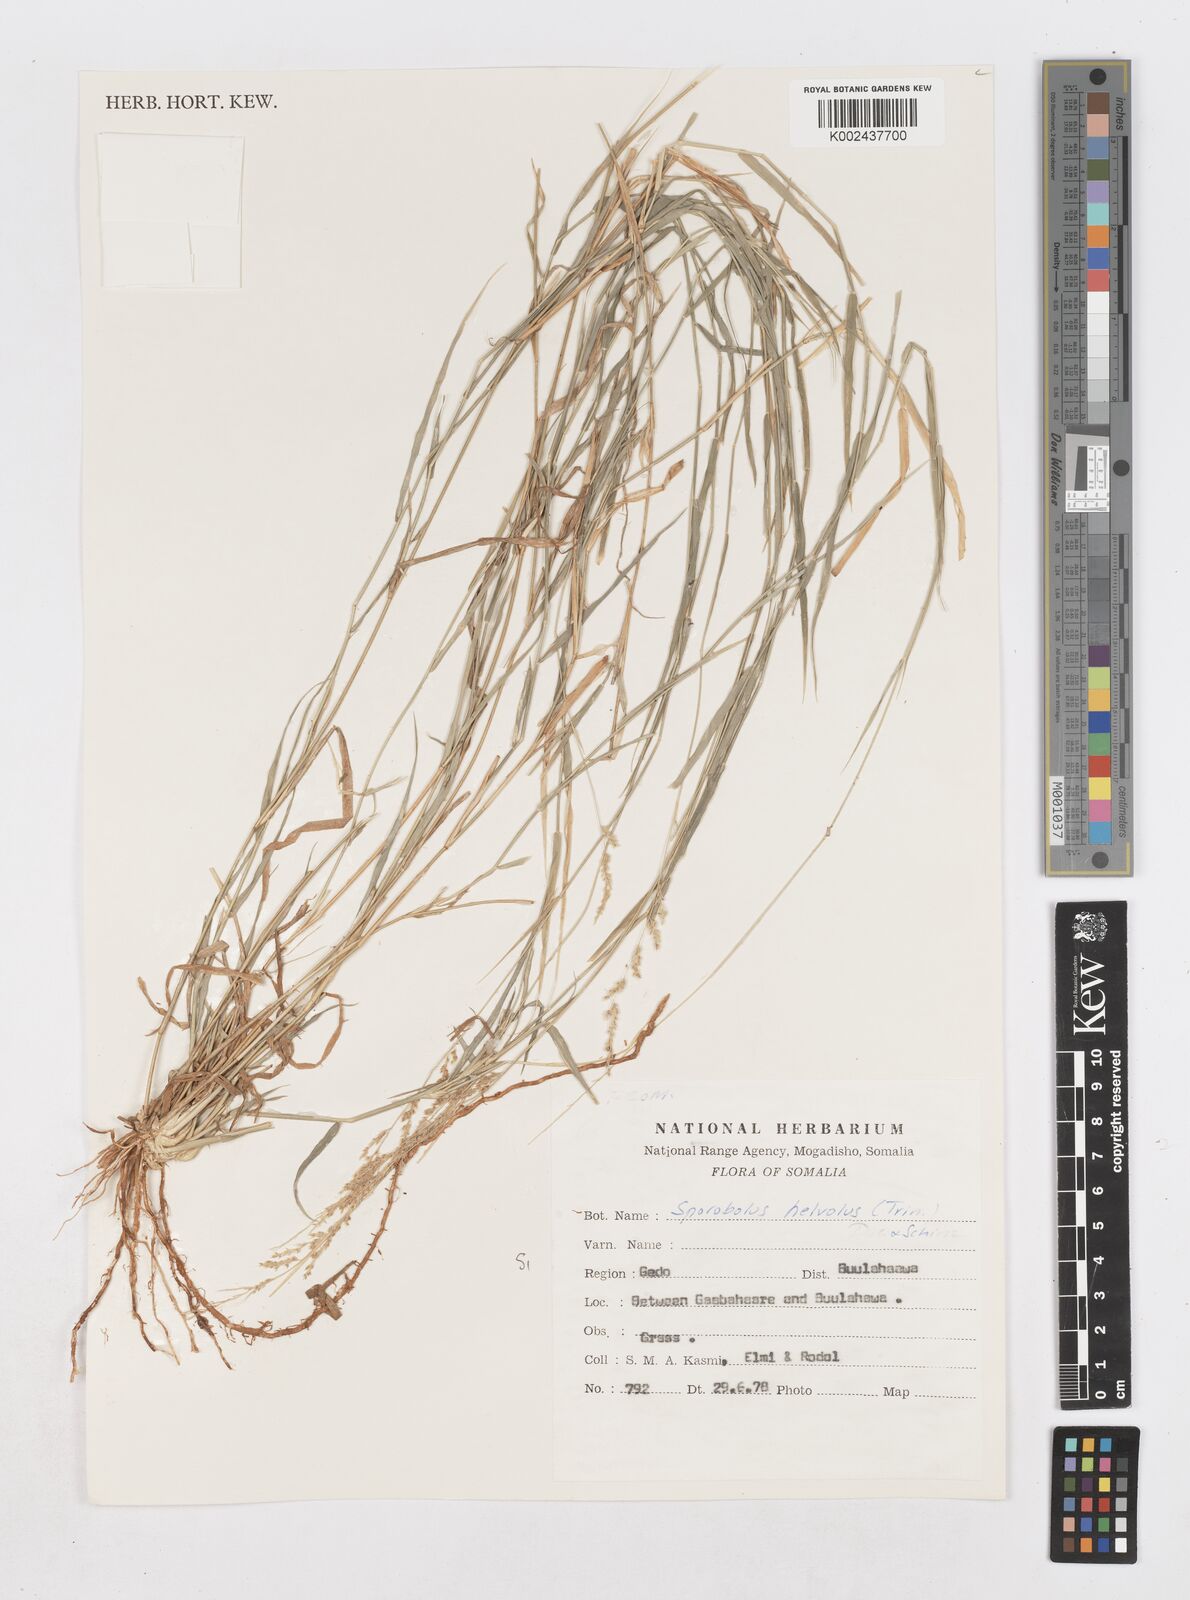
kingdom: Plantae
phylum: Tracheophyta
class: Liliopsida
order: Poales
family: Poaceae
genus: Sporobolus
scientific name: Sporobolus helvolus
